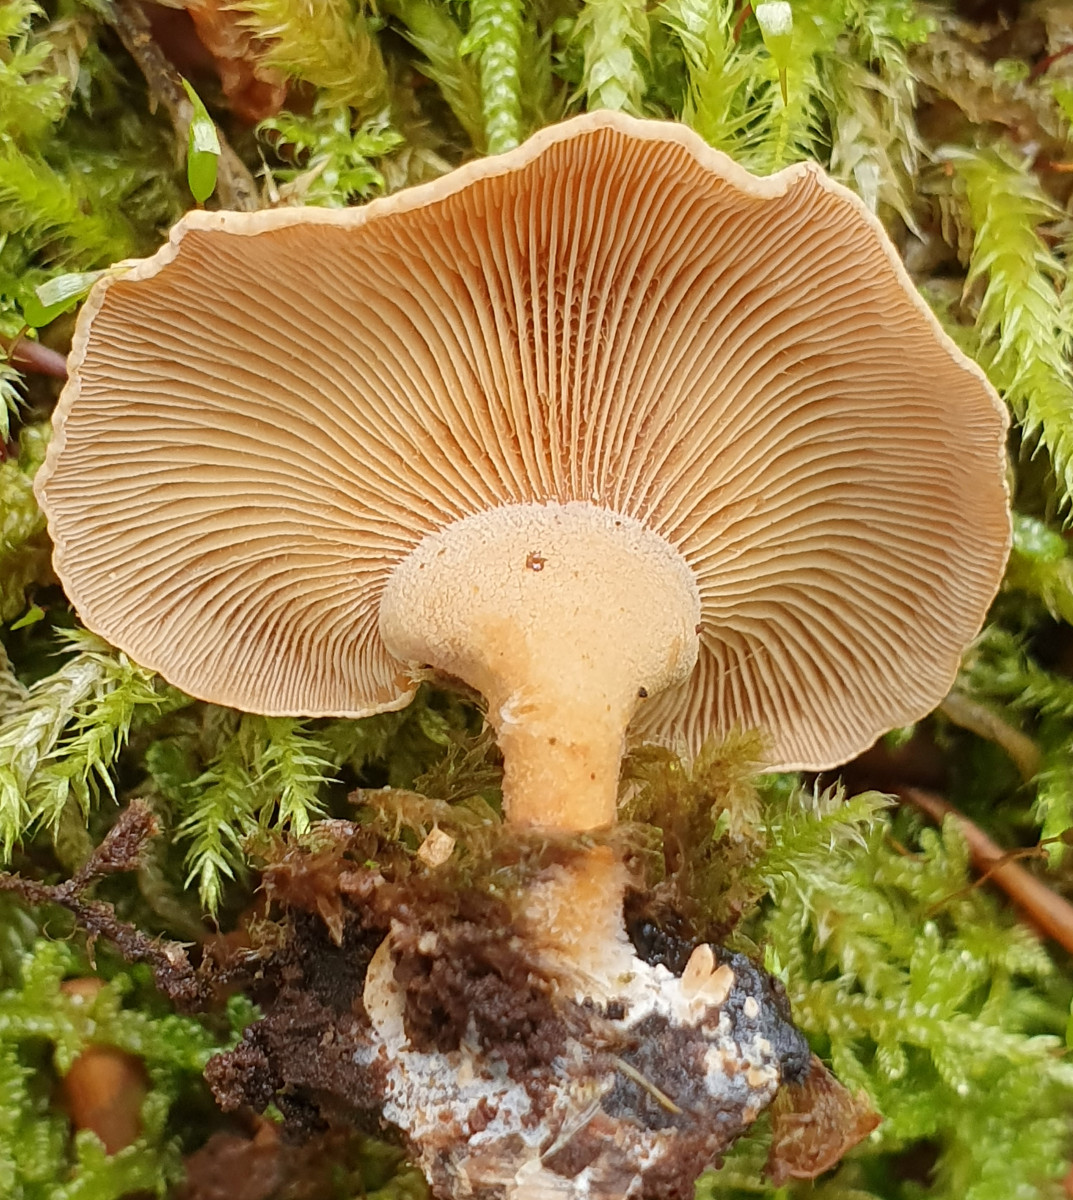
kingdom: Fungi
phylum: Basidiomycota
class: Agaricomycetes
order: Agaricales
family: Mycenaceae
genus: Panellus
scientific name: Panellus stipticus
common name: kliddet epaulethat
